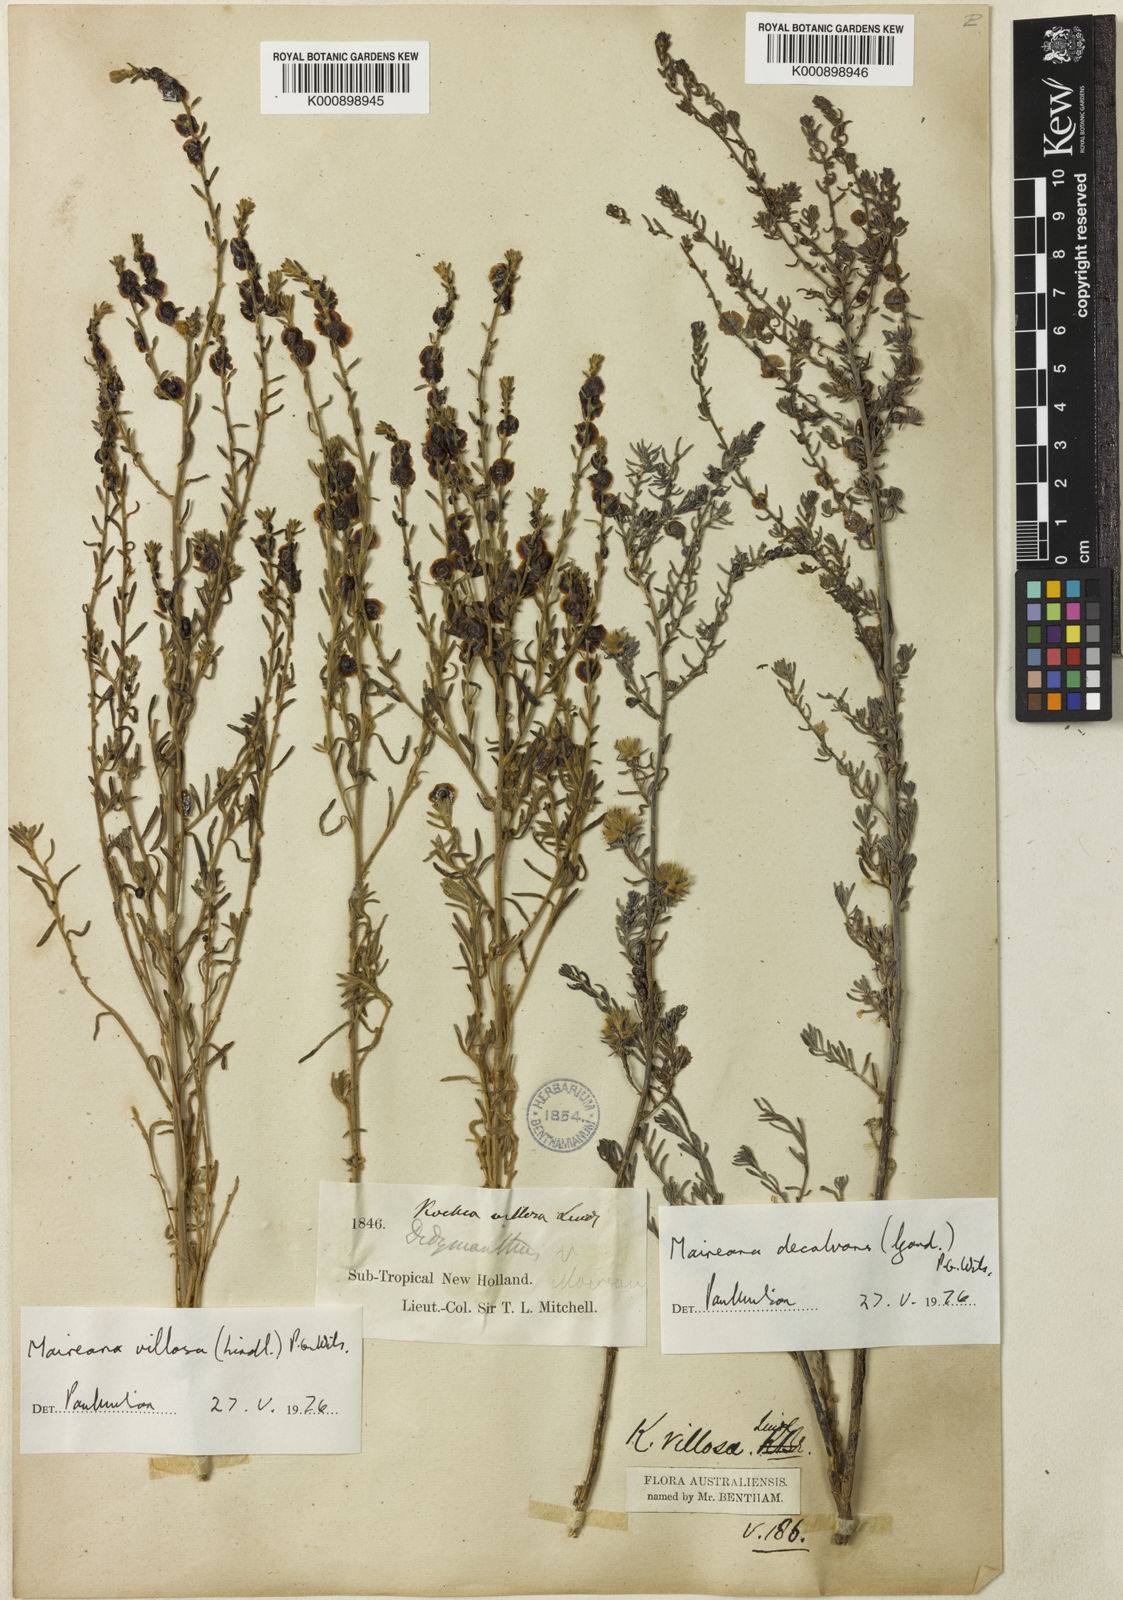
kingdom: Plantae
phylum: Tracheophyta
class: Magnoliopsida
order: Caryophyllales
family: Amaranthaceae
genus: Maireana
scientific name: Maireana villosa
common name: Silky bluebush
